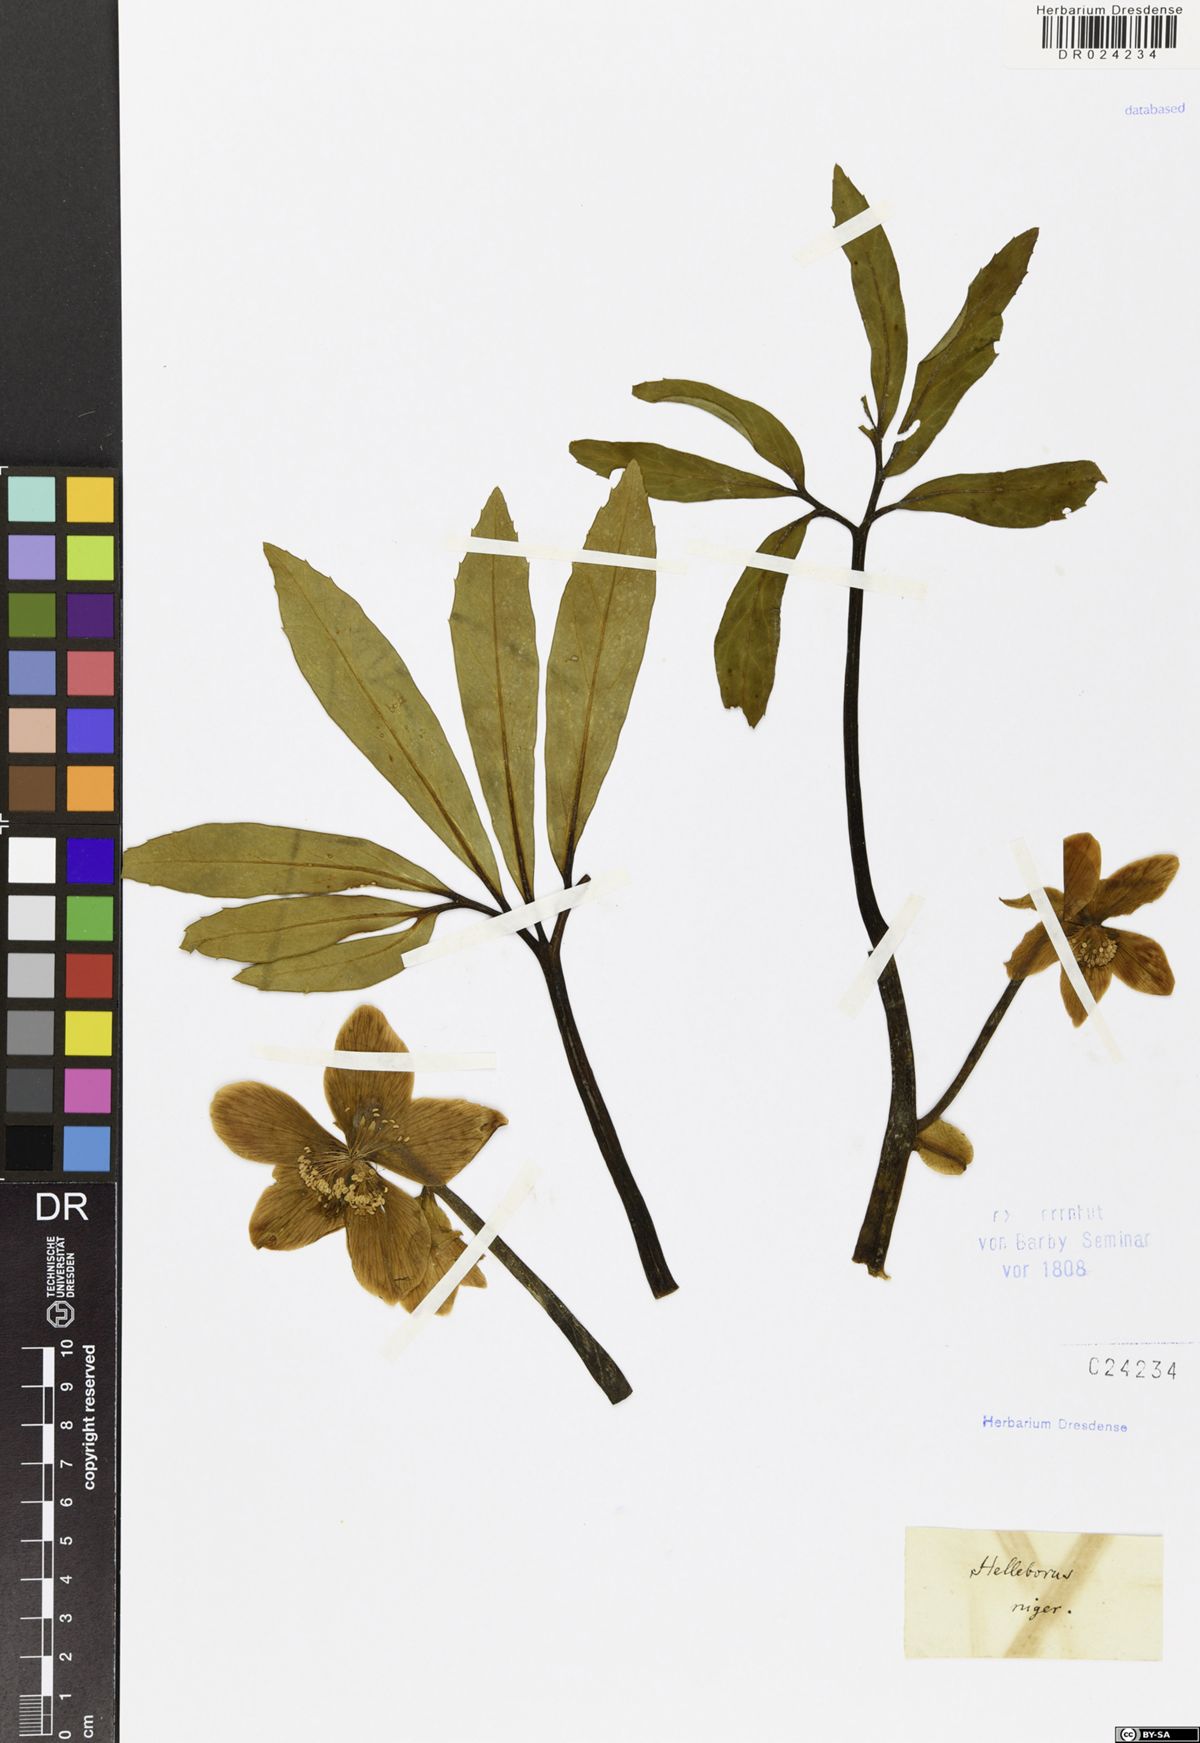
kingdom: Plantae
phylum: Tracheophyta
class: Magnoliopsida
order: Ranunculales
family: Ranunculaceae
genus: Helleborus
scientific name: Helleborus niger
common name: Black hellebore
